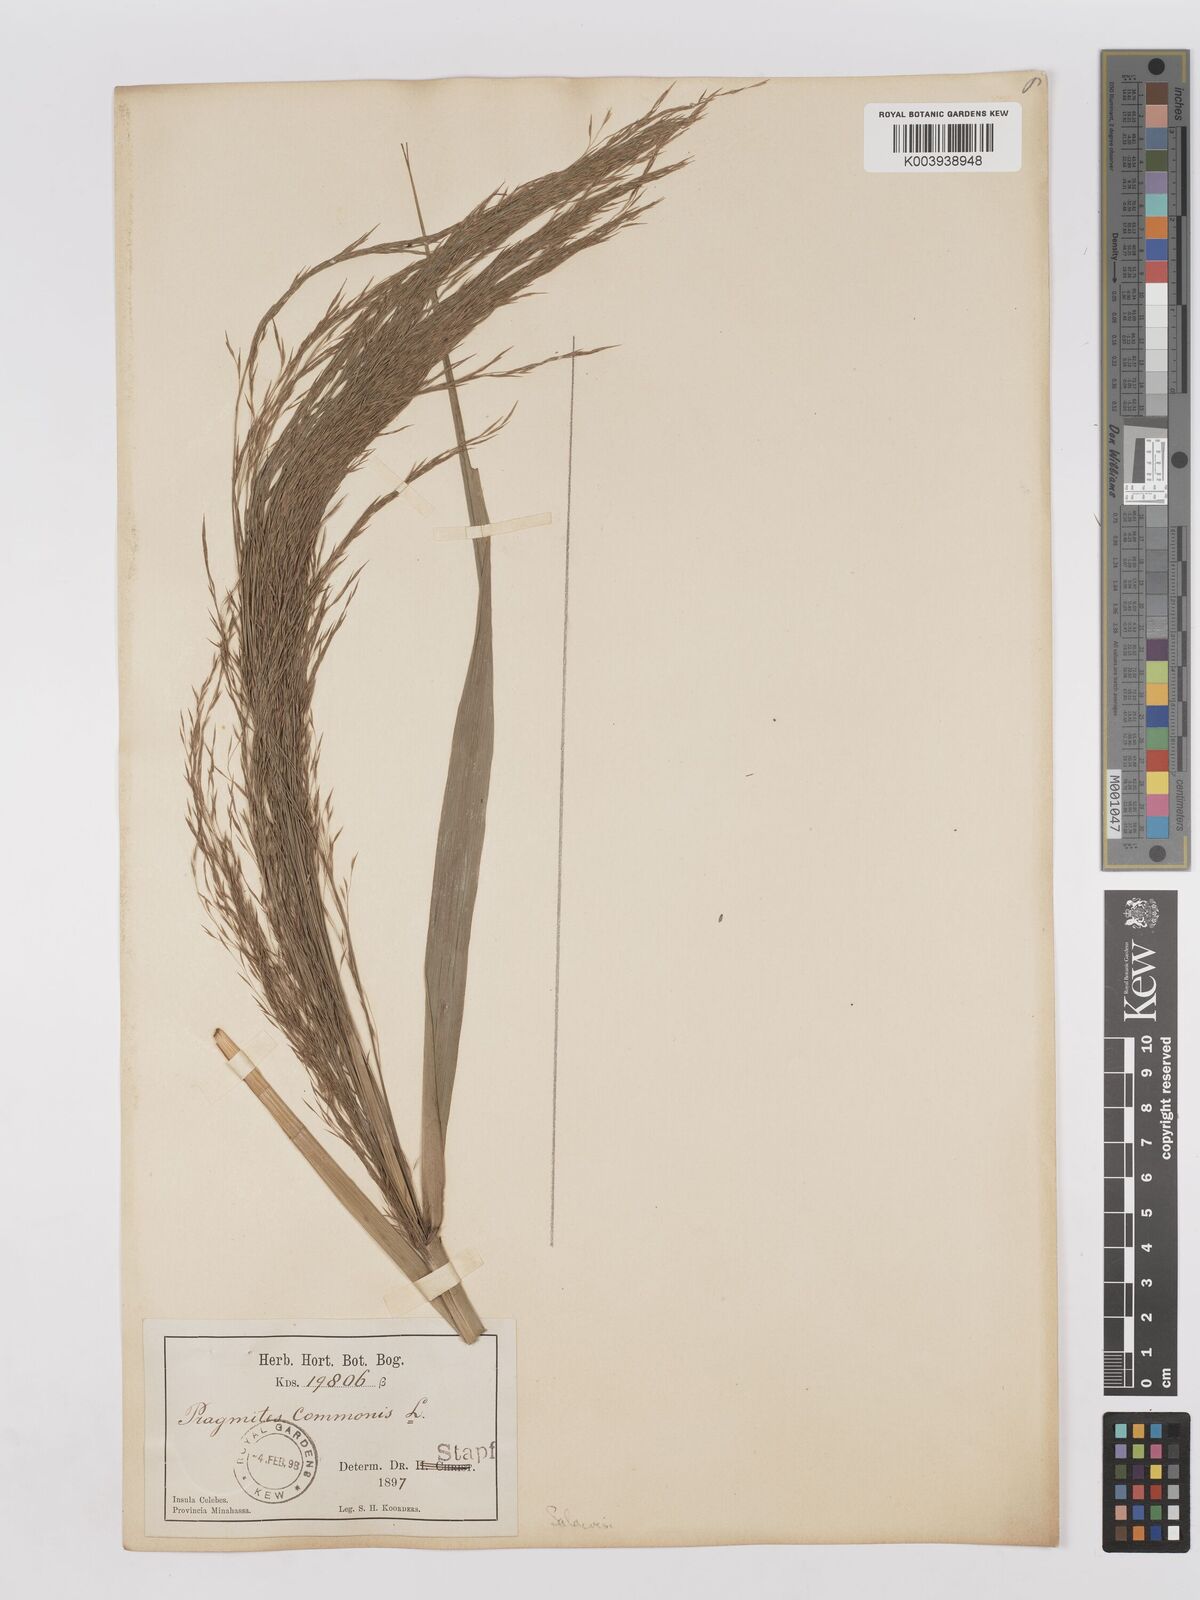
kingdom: Plantae
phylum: Tracheophyta
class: Liliopsida
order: Poales
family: Poaceae
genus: Phragmites
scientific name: Phragmites karka
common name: Tropical reed
